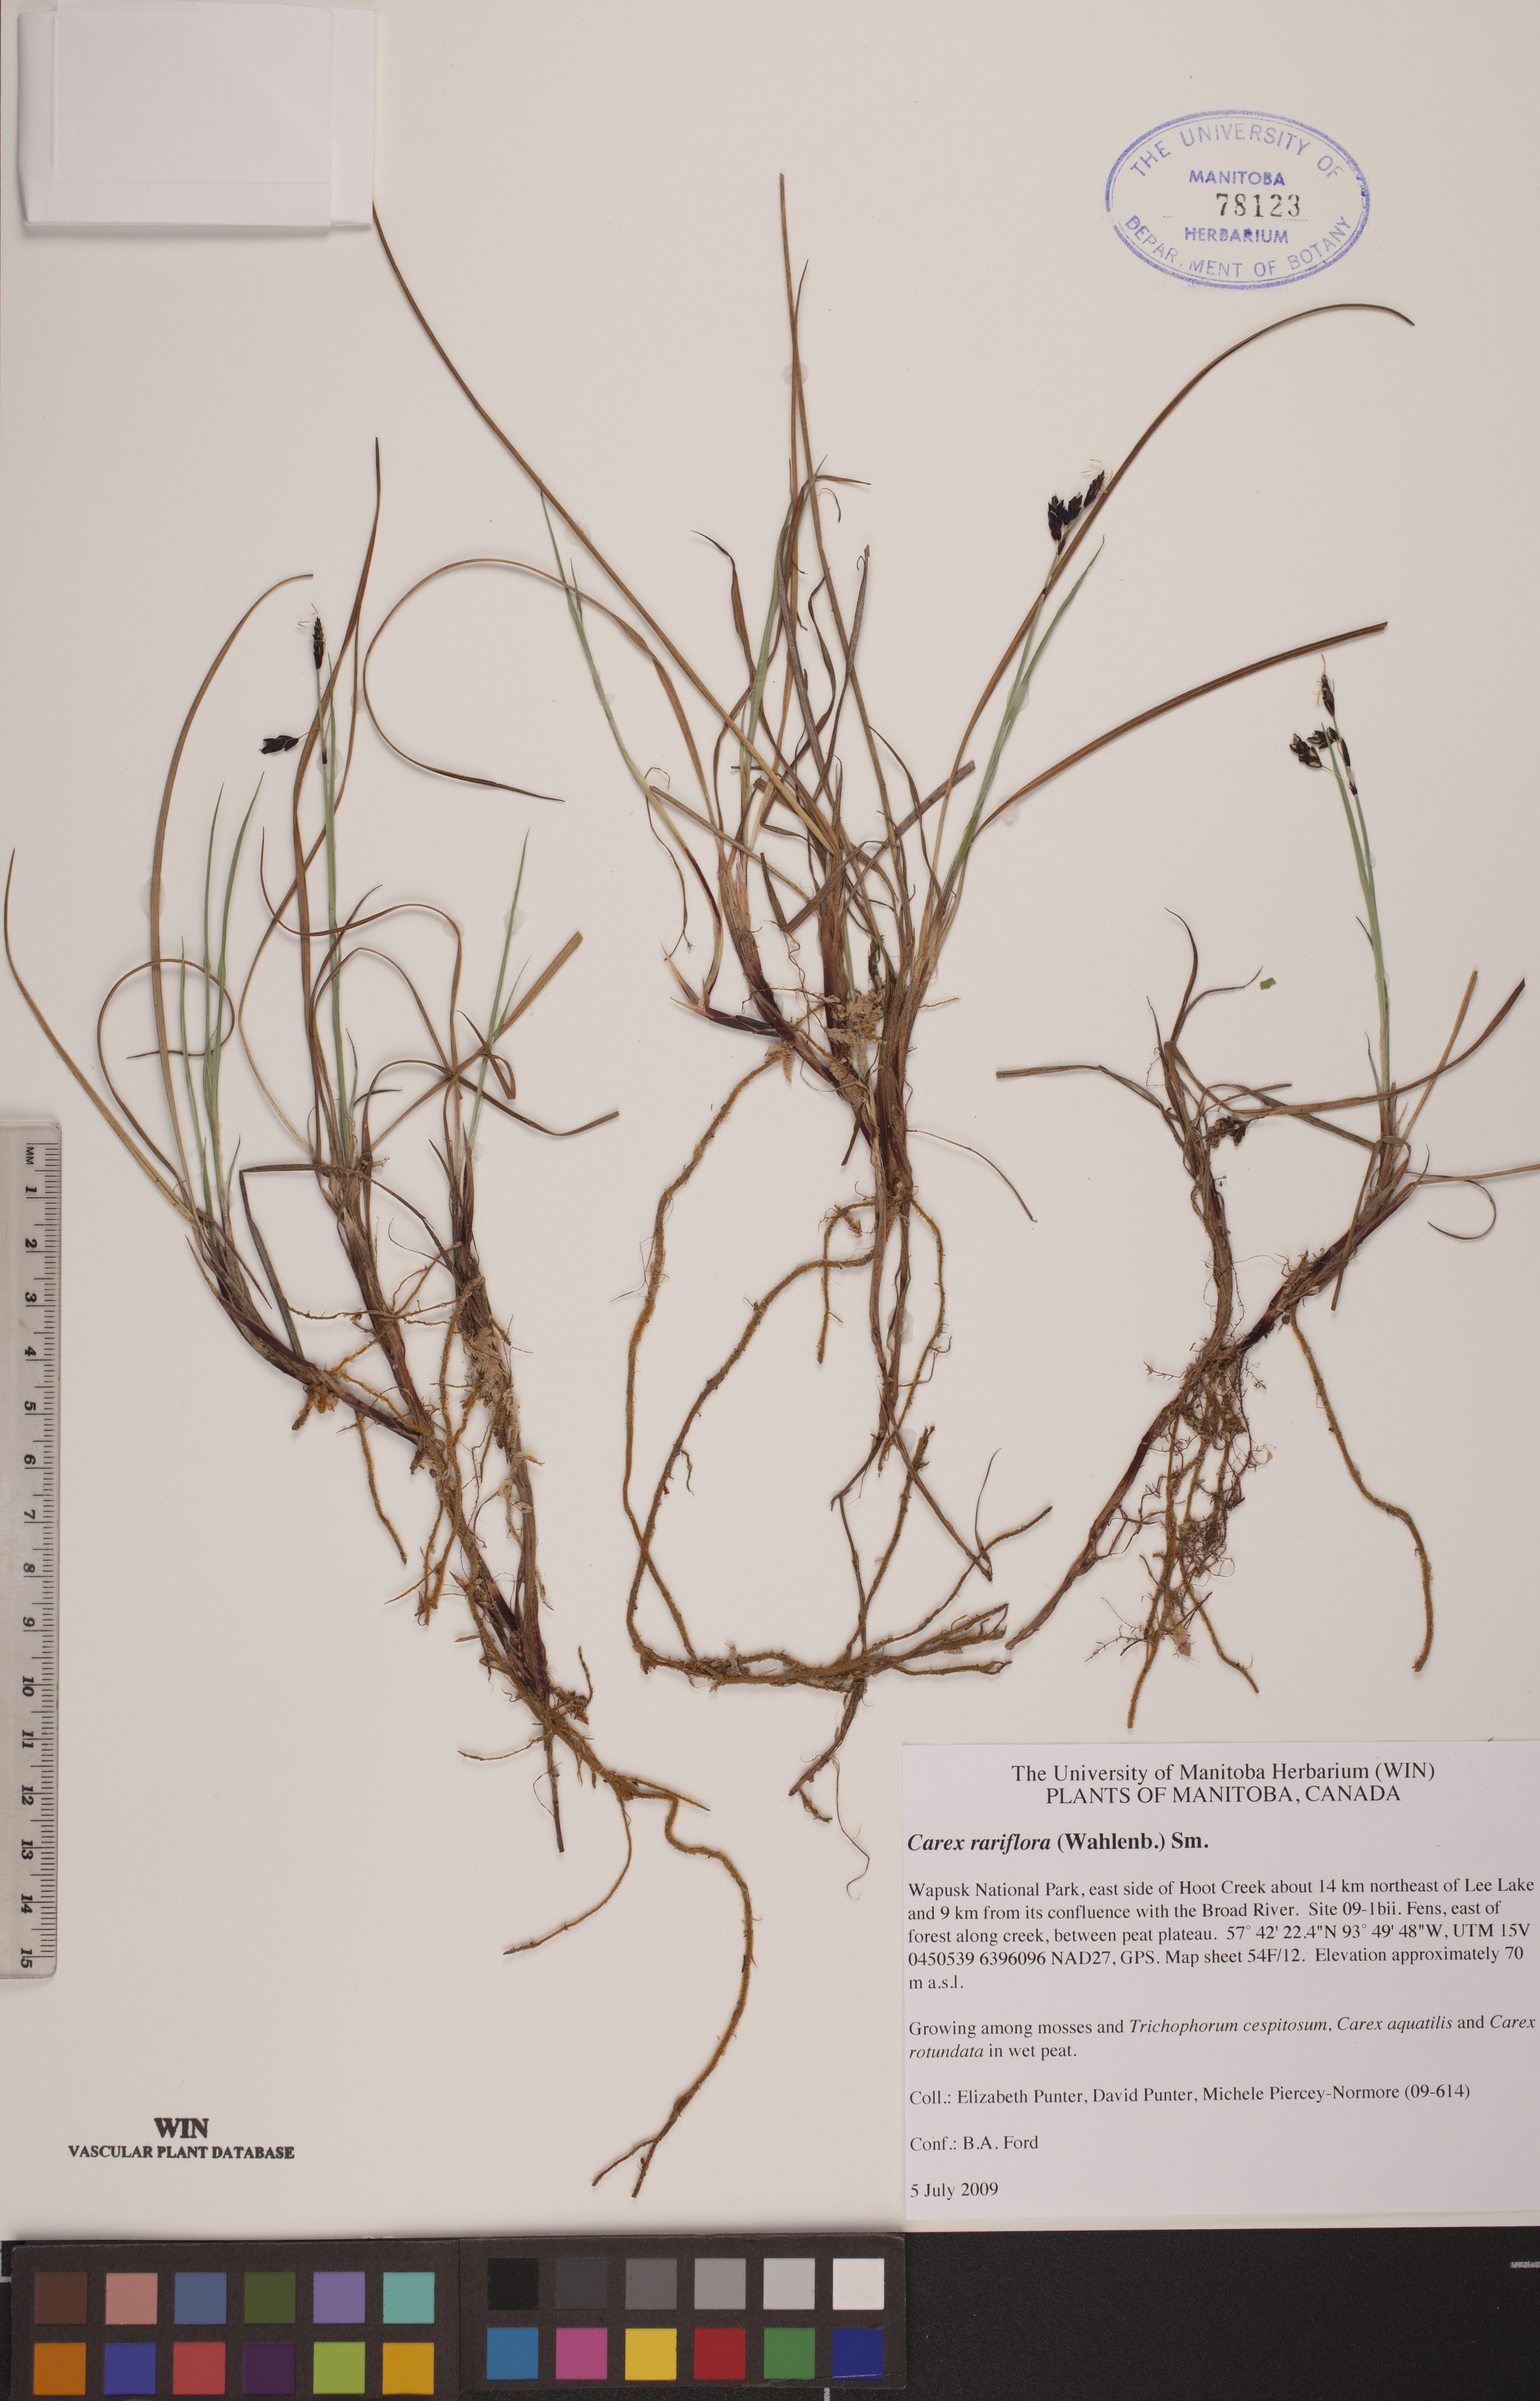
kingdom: Plantae
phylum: Tracheophyta
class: Liliopsida
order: Poales
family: Cyperaceae
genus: Carex
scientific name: Carex rariflora
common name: Loose-flowered alpine sedge
